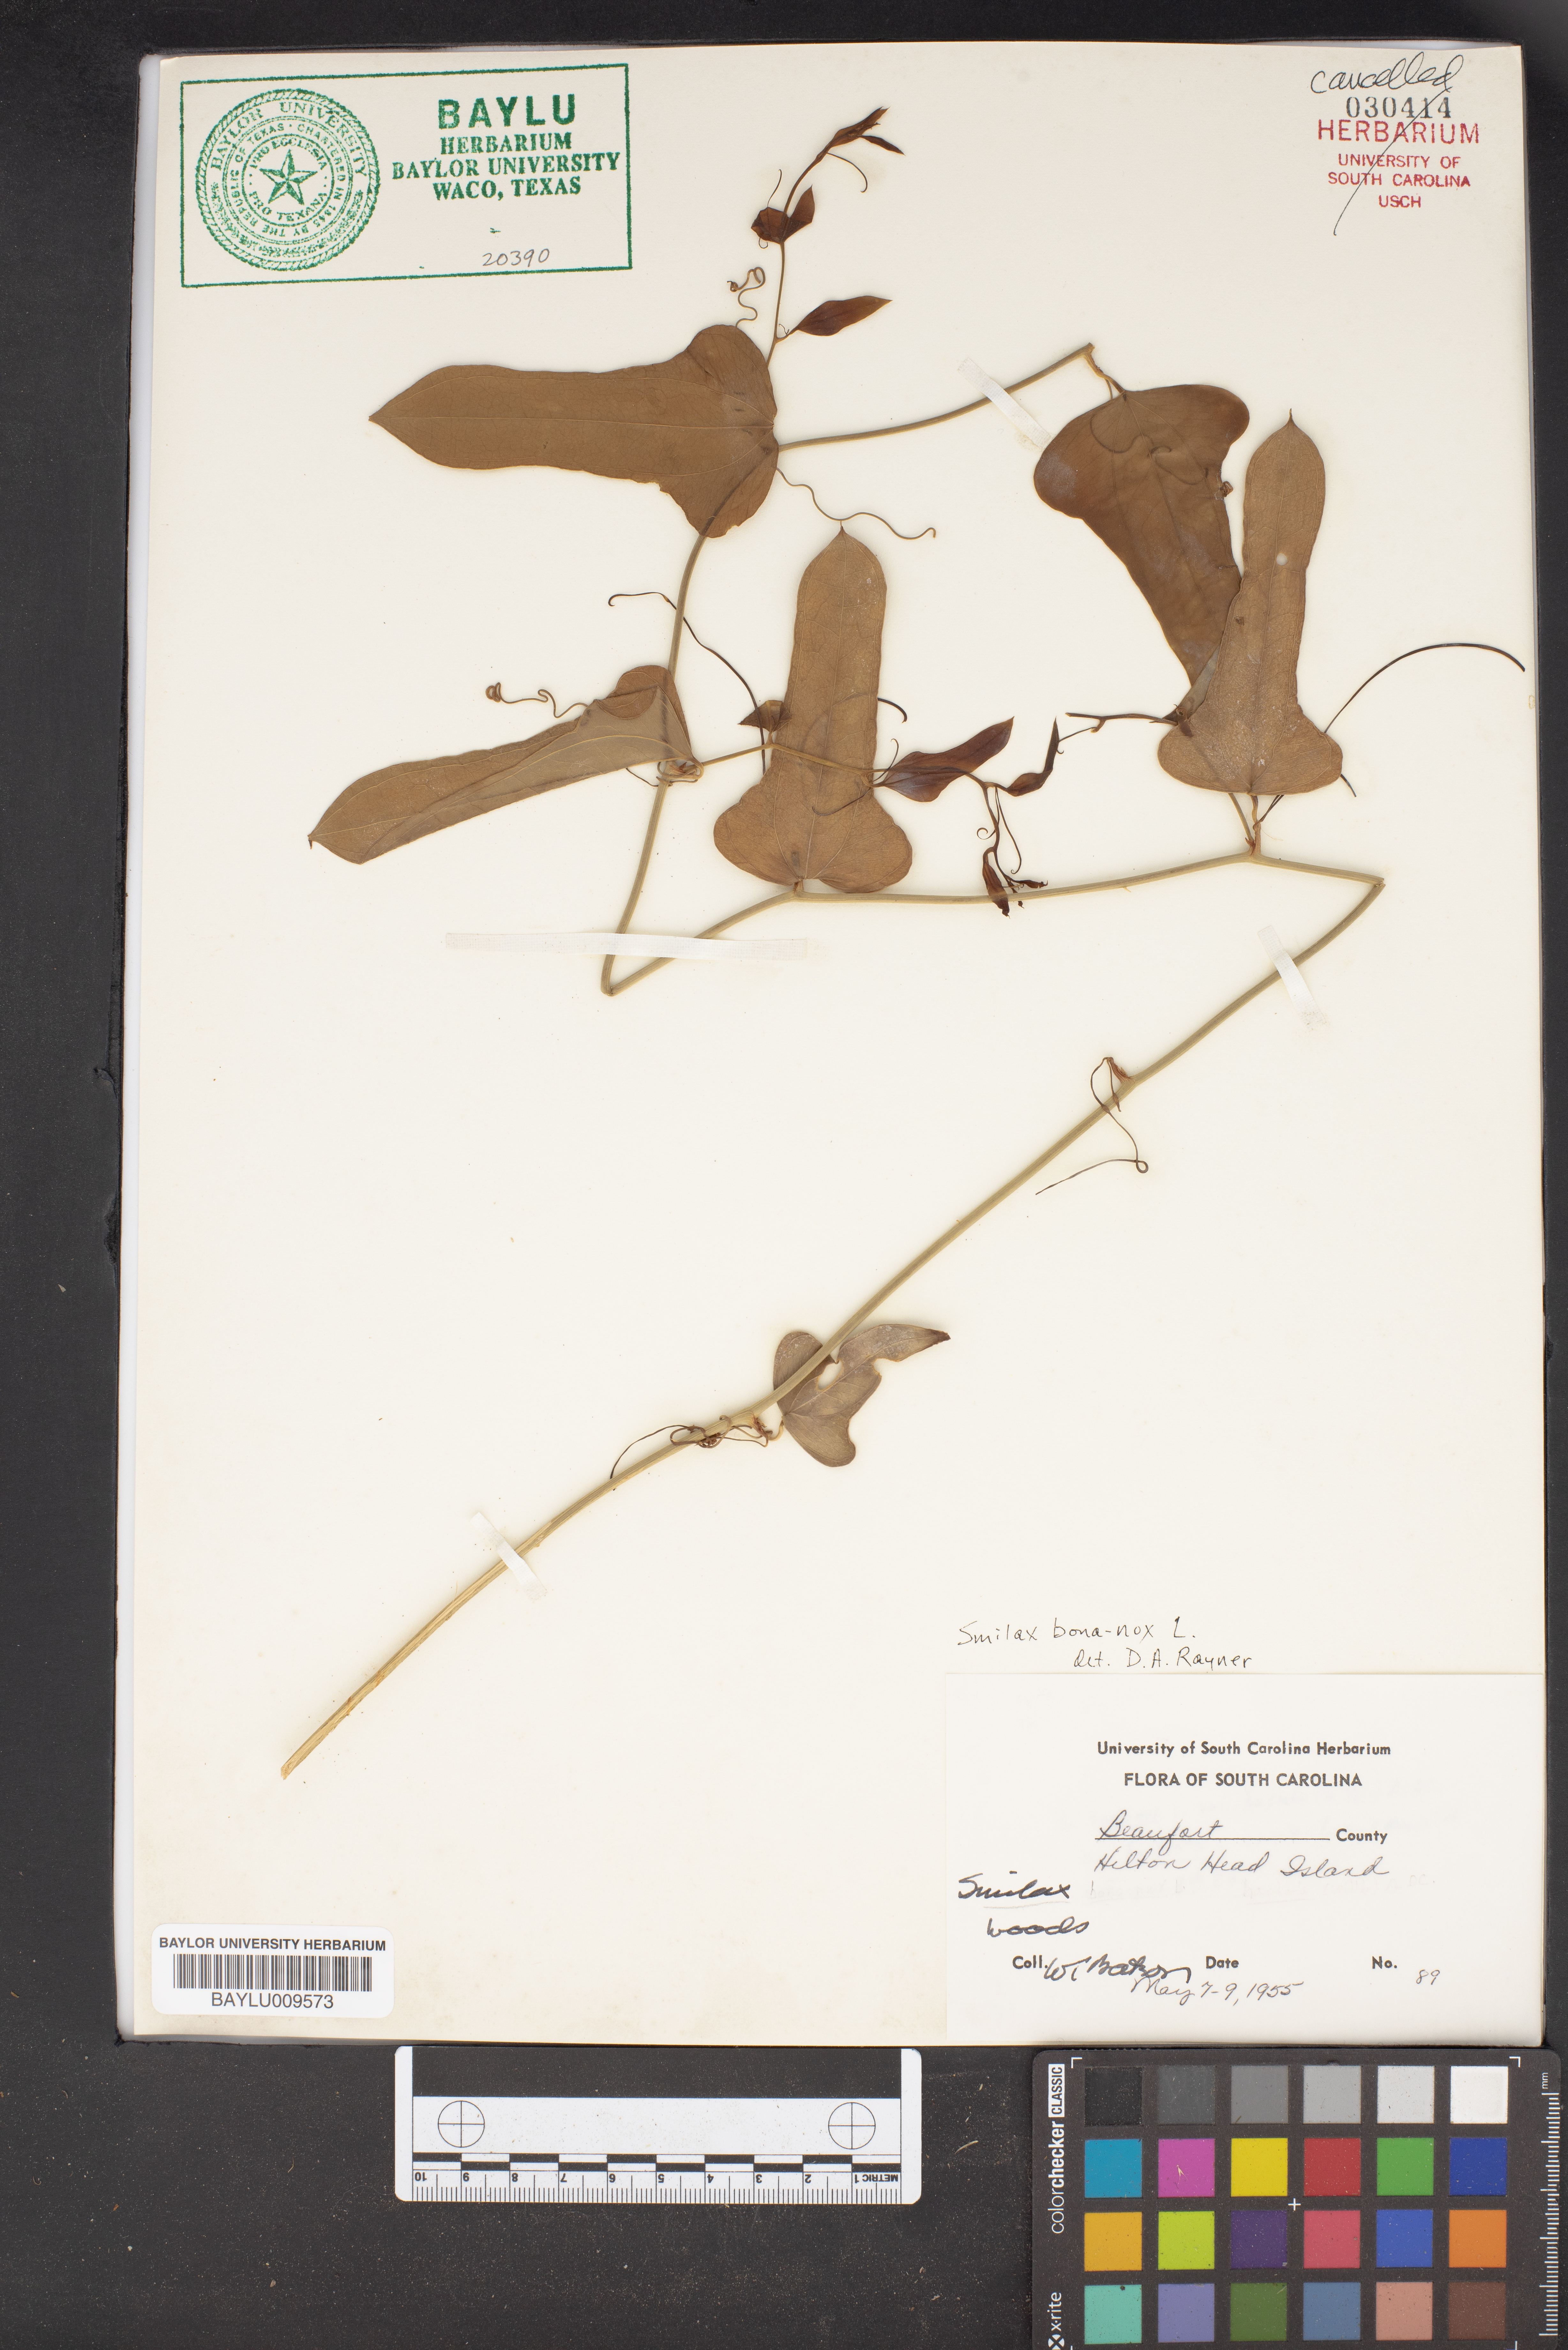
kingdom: Plantae
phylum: Tracheophyta
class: Liliopsida
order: Liliales
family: Smilacaceae
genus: Smilax
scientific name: Smilax bona-nox
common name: Catbrier
